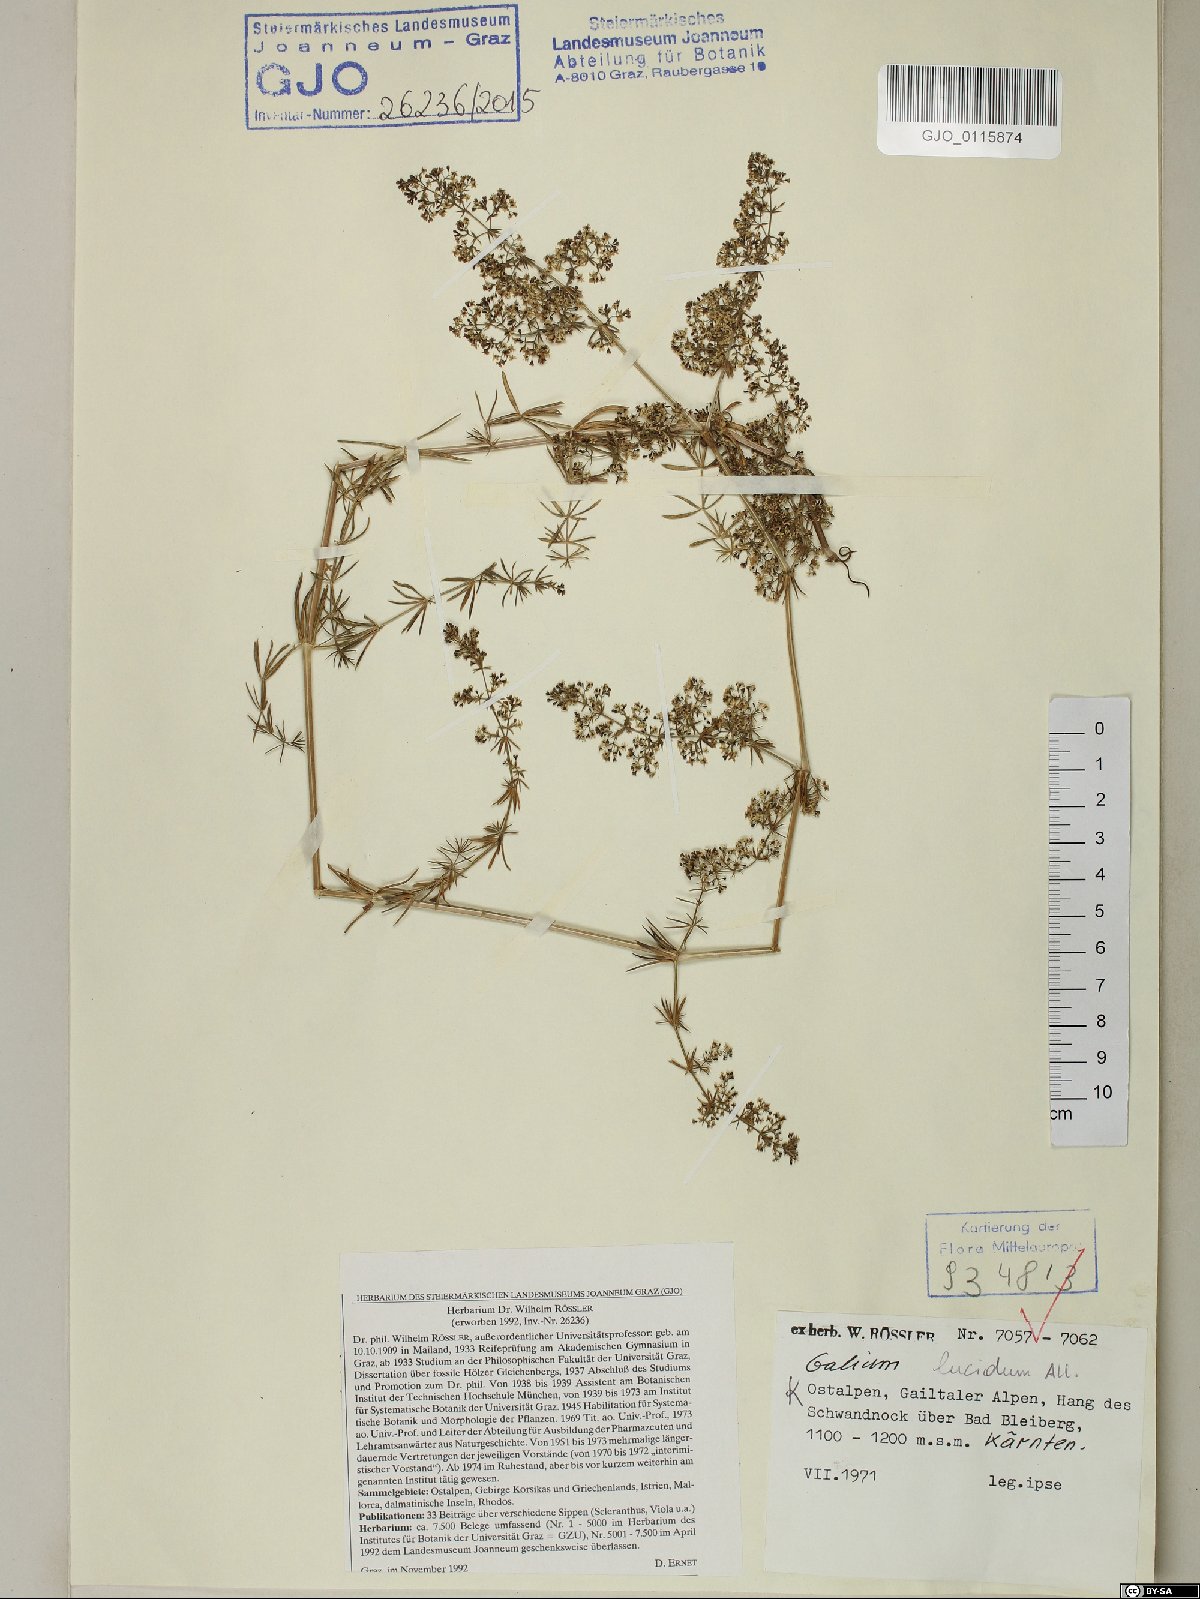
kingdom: Plantae
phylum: Tracheophyta
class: Magnoliopsida
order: Gentianales
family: Rubiaceae
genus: Galium
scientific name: Galium lucidum
